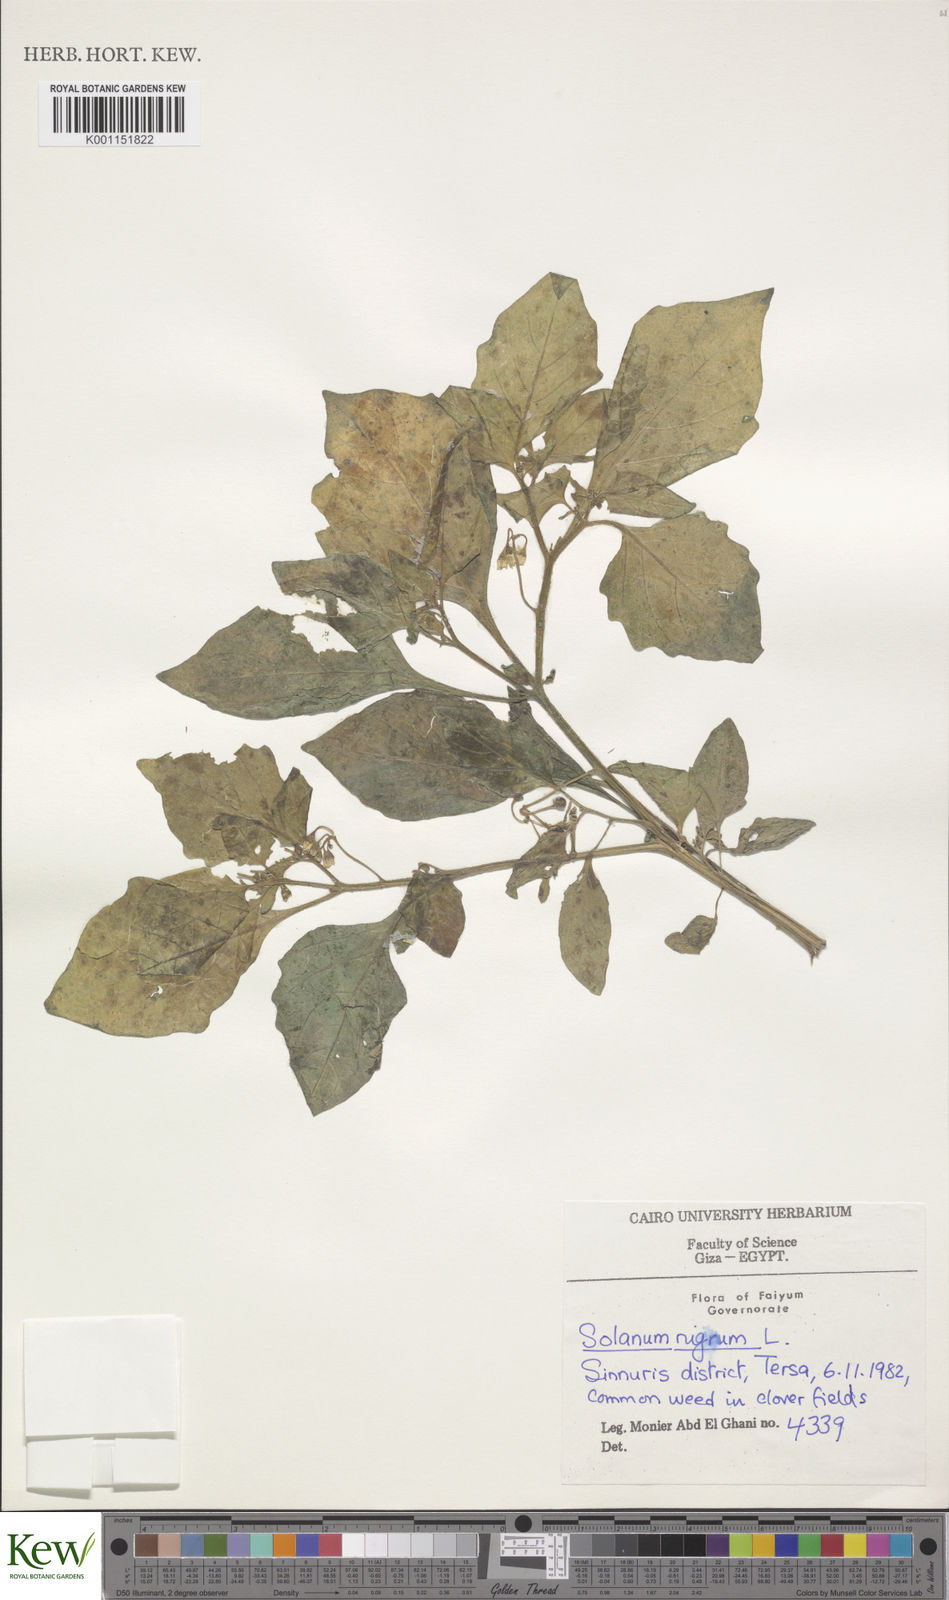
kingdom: Plantae
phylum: Tracheophyta
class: Magnoliopsida
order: Solanales
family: Solanaceae
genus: Solanum
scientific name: Solanum nigrum
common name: Black nightshade
